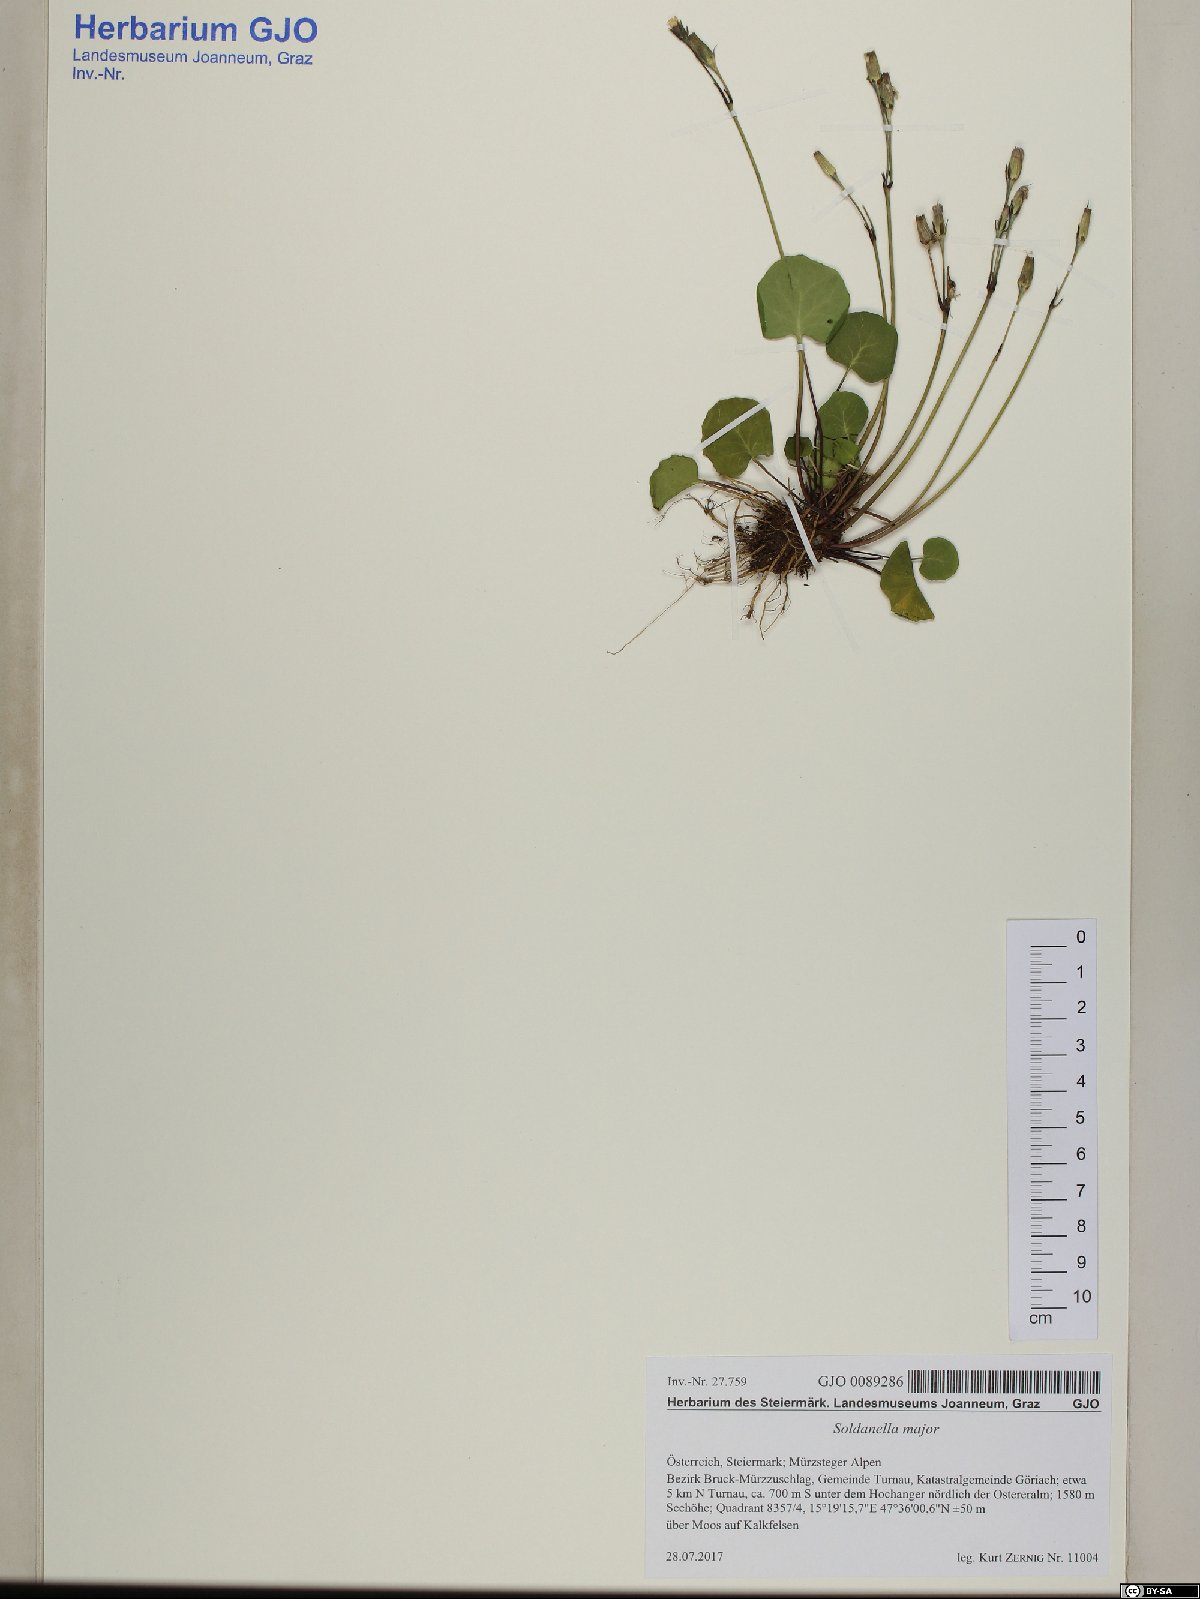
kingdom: Plantae
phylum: Tracheophyta
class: Magnoliopsida
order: Ericales
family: Primulaceae
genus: Soldanella
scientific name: Soldanella major
